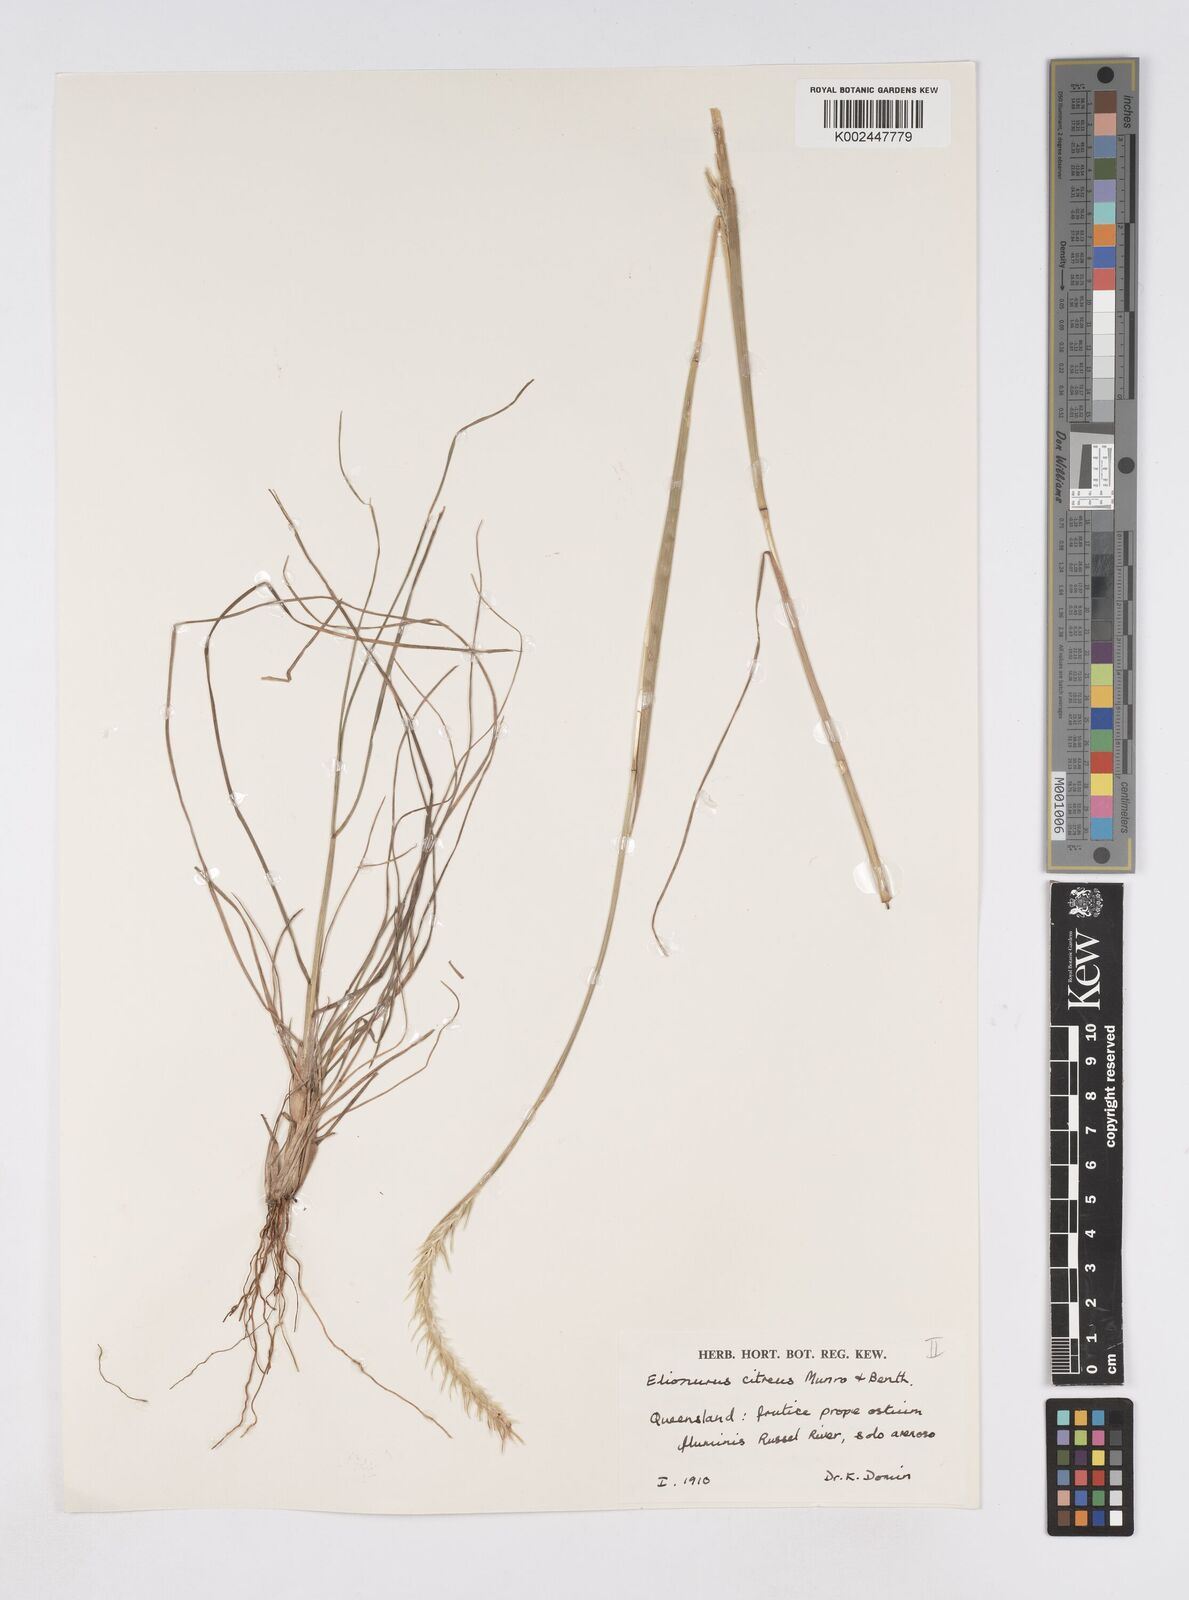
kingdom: Plantae
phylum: Tracheophyta
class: Liliopsida
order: Poales
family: Poaceae
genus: Elionurus
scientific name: Elionurus citreus
